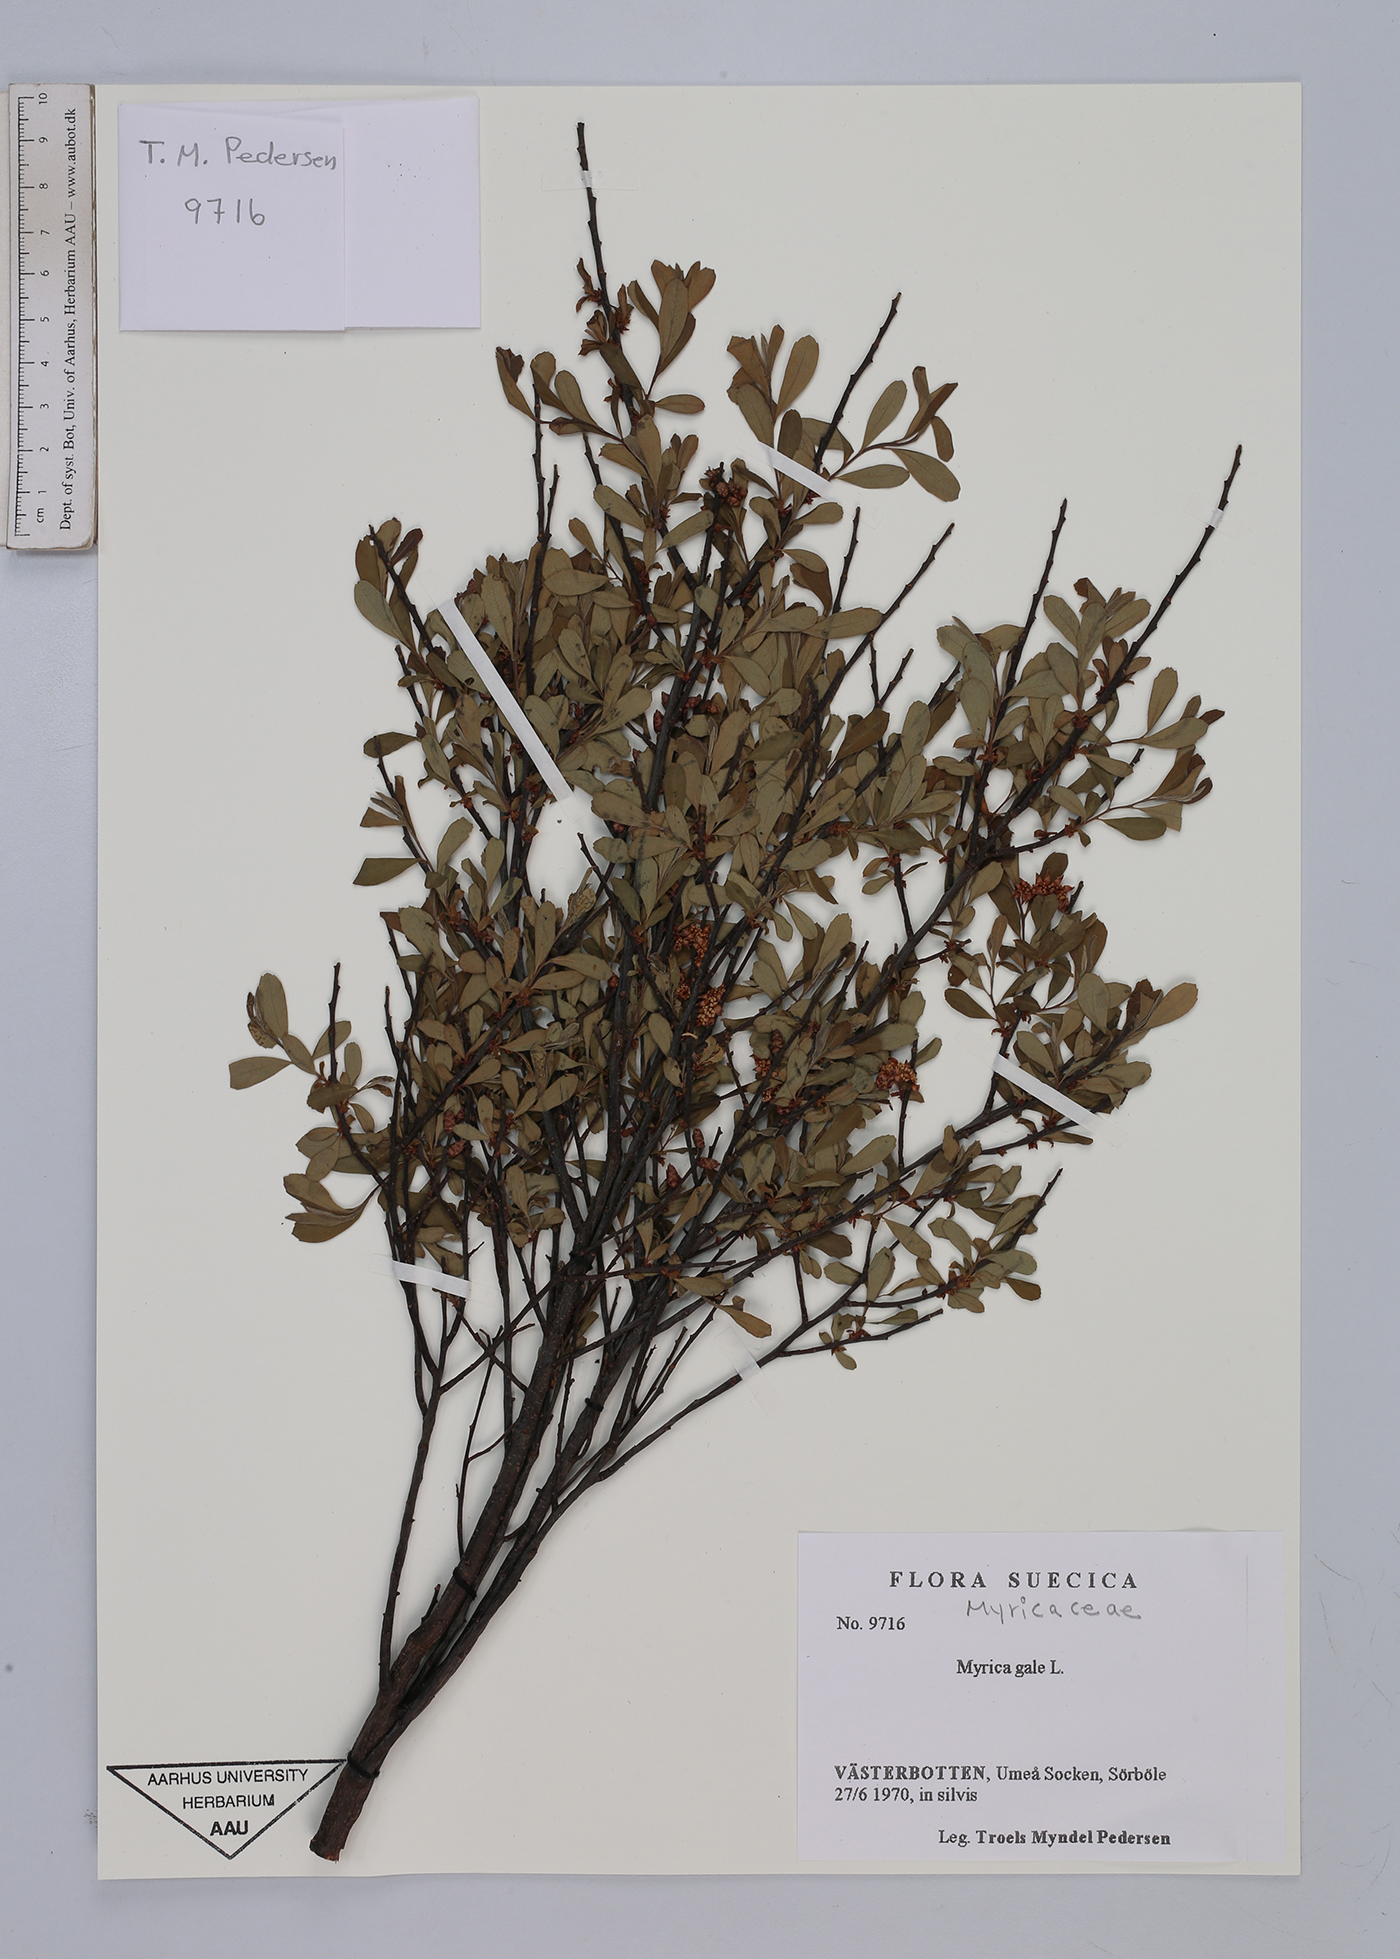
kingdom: Plantae
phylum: Tracheophyta
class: Magnoliopsida
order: Fagales
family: Myricaceae
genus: Myrica
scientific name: Myrica gale
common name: Sweet gale
